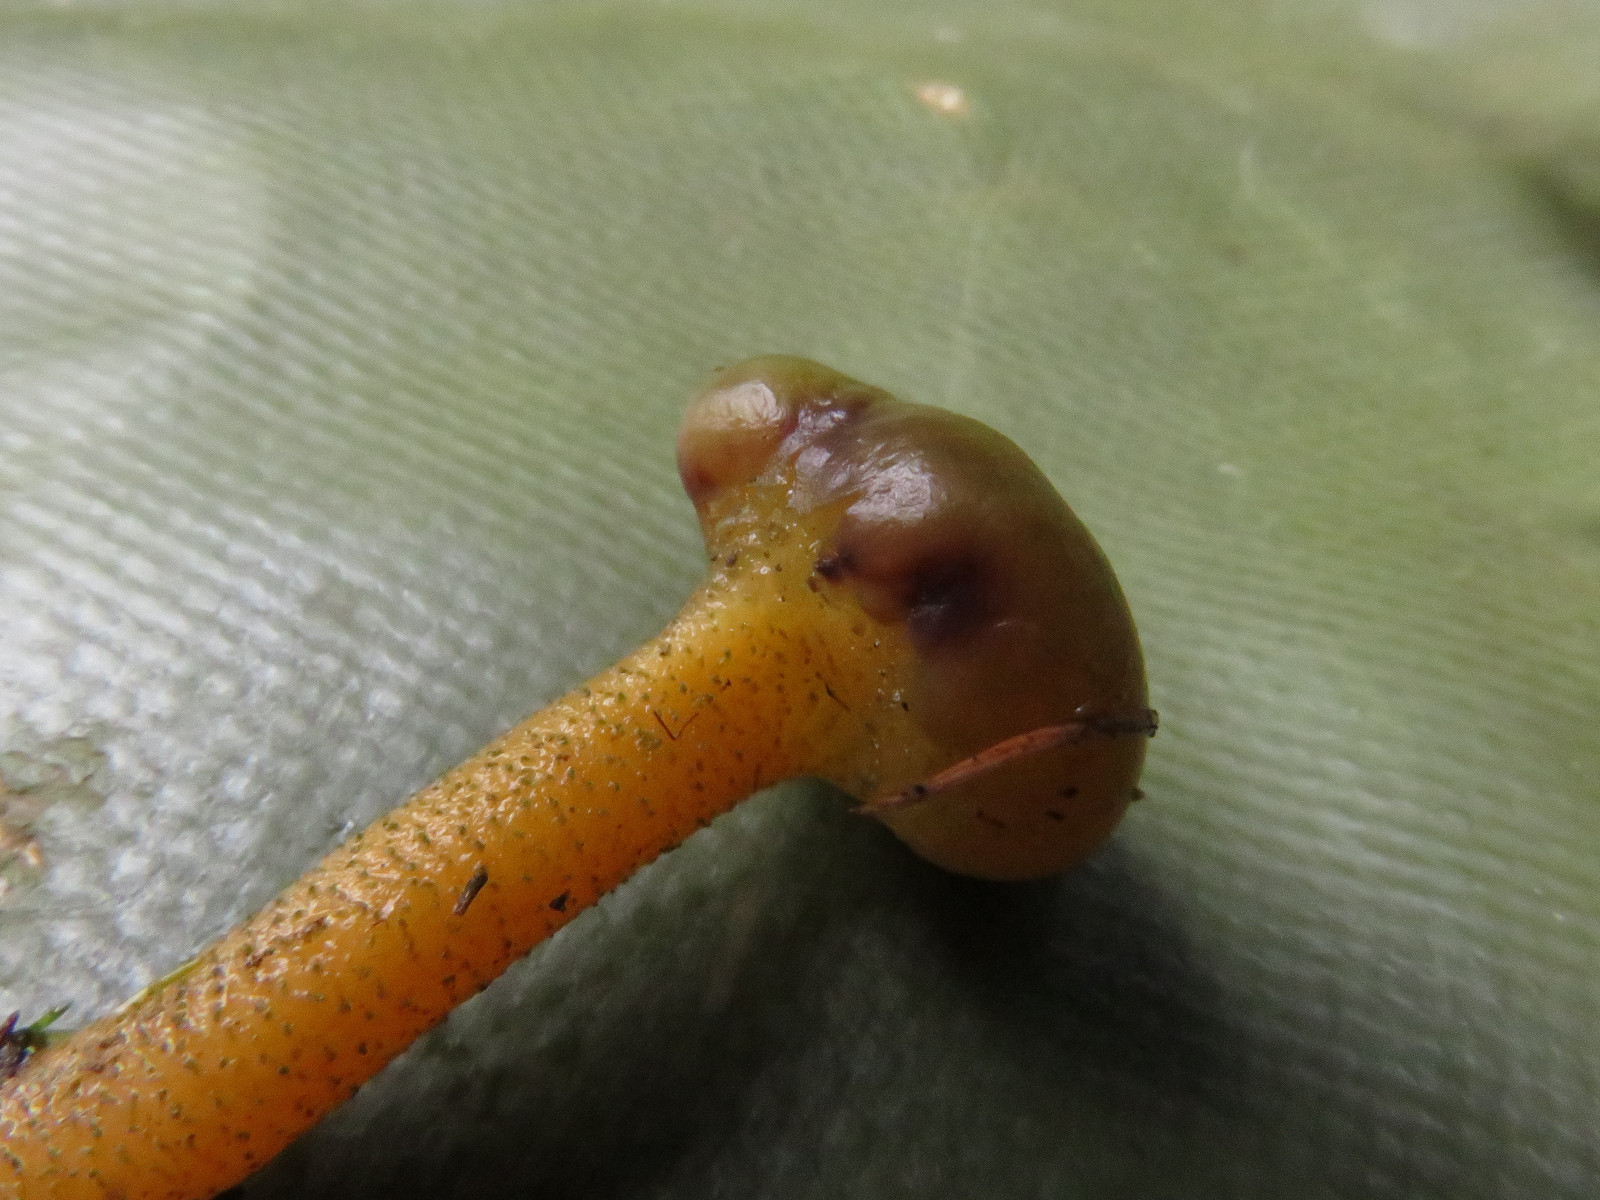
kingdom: Fungi
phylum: Ascomycota
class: Leotiomycetes
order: Leotiales
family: Leotiaceae
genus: Leotia
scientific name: Leotia lubrica
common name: ravsvamp
